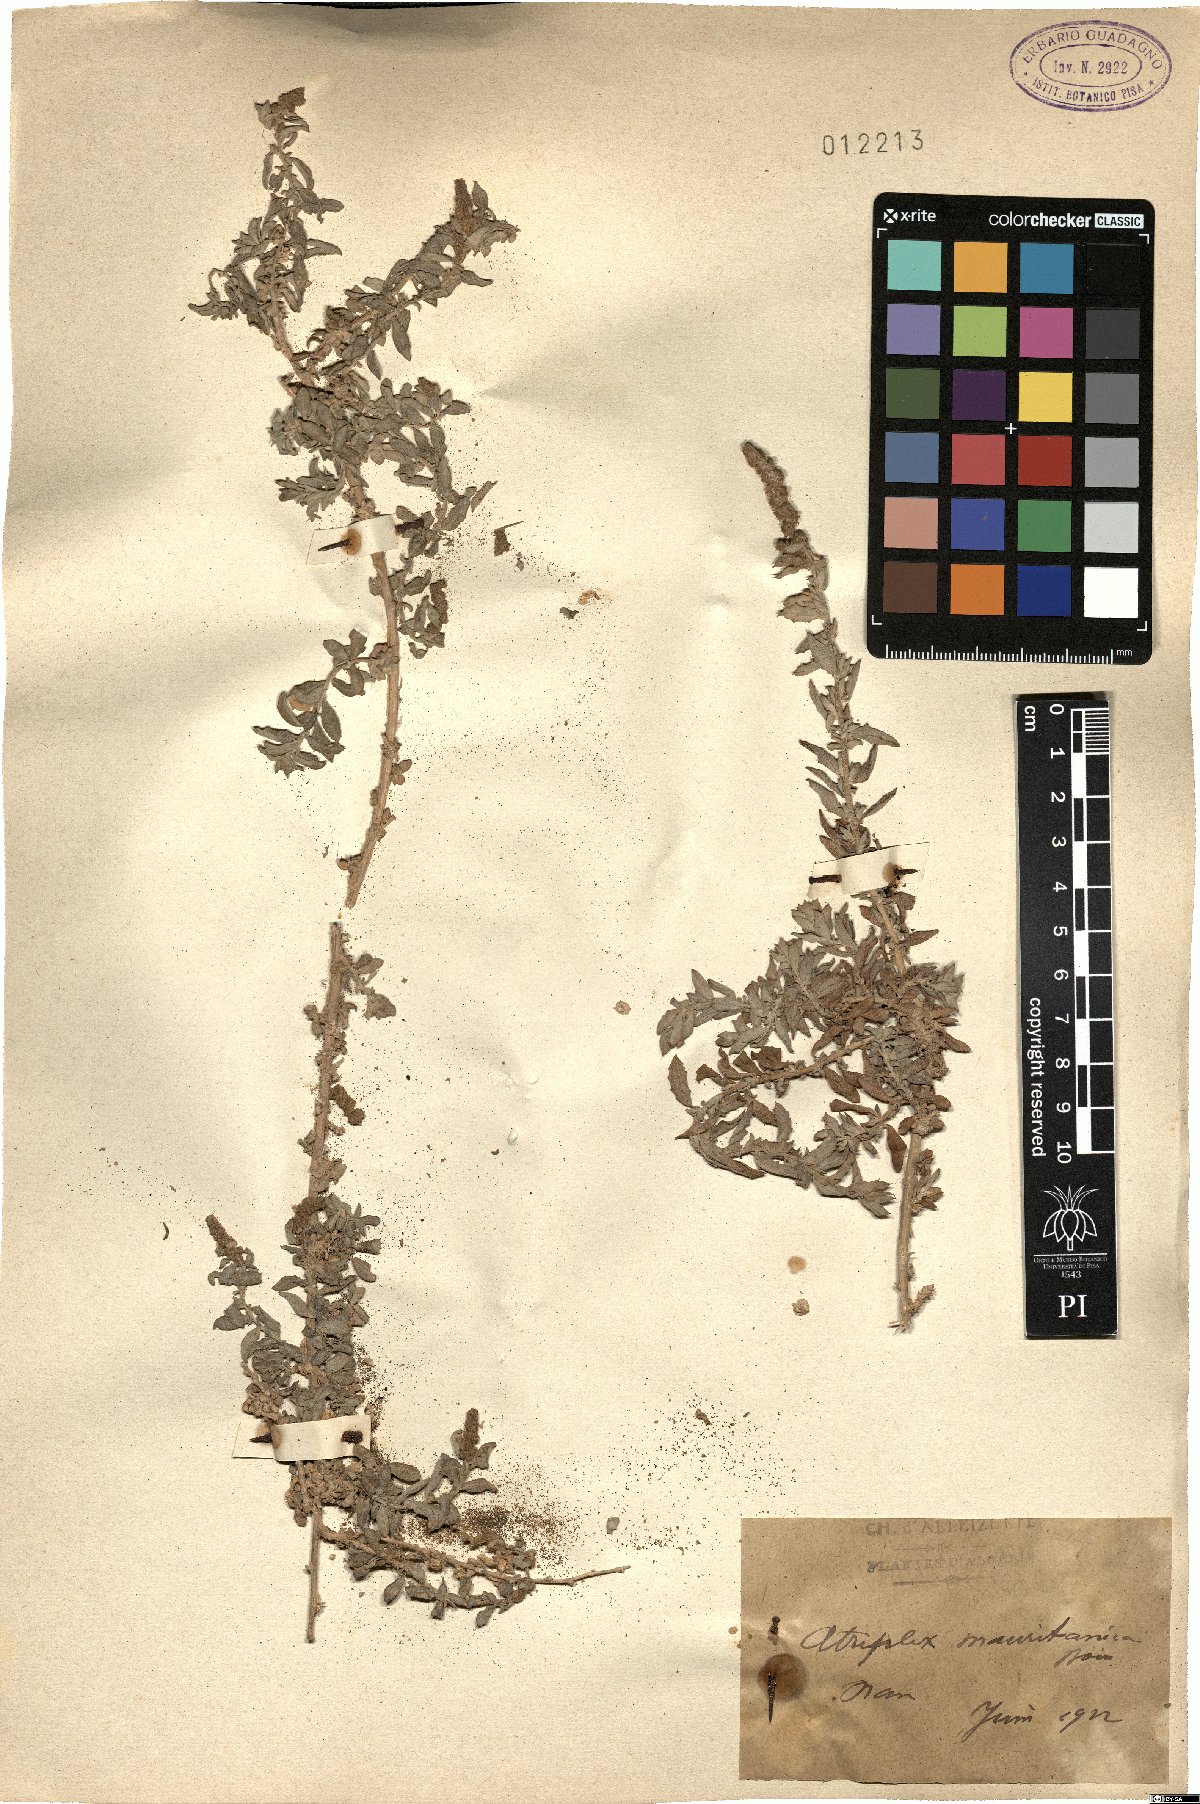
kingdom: Plantae
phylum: Tracheophyta
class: Magnoliopsida
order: Caryophyllales
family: Amaranthaceae
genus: Atriplex
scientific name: Atriplex glauca
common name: Waxy saltbush
